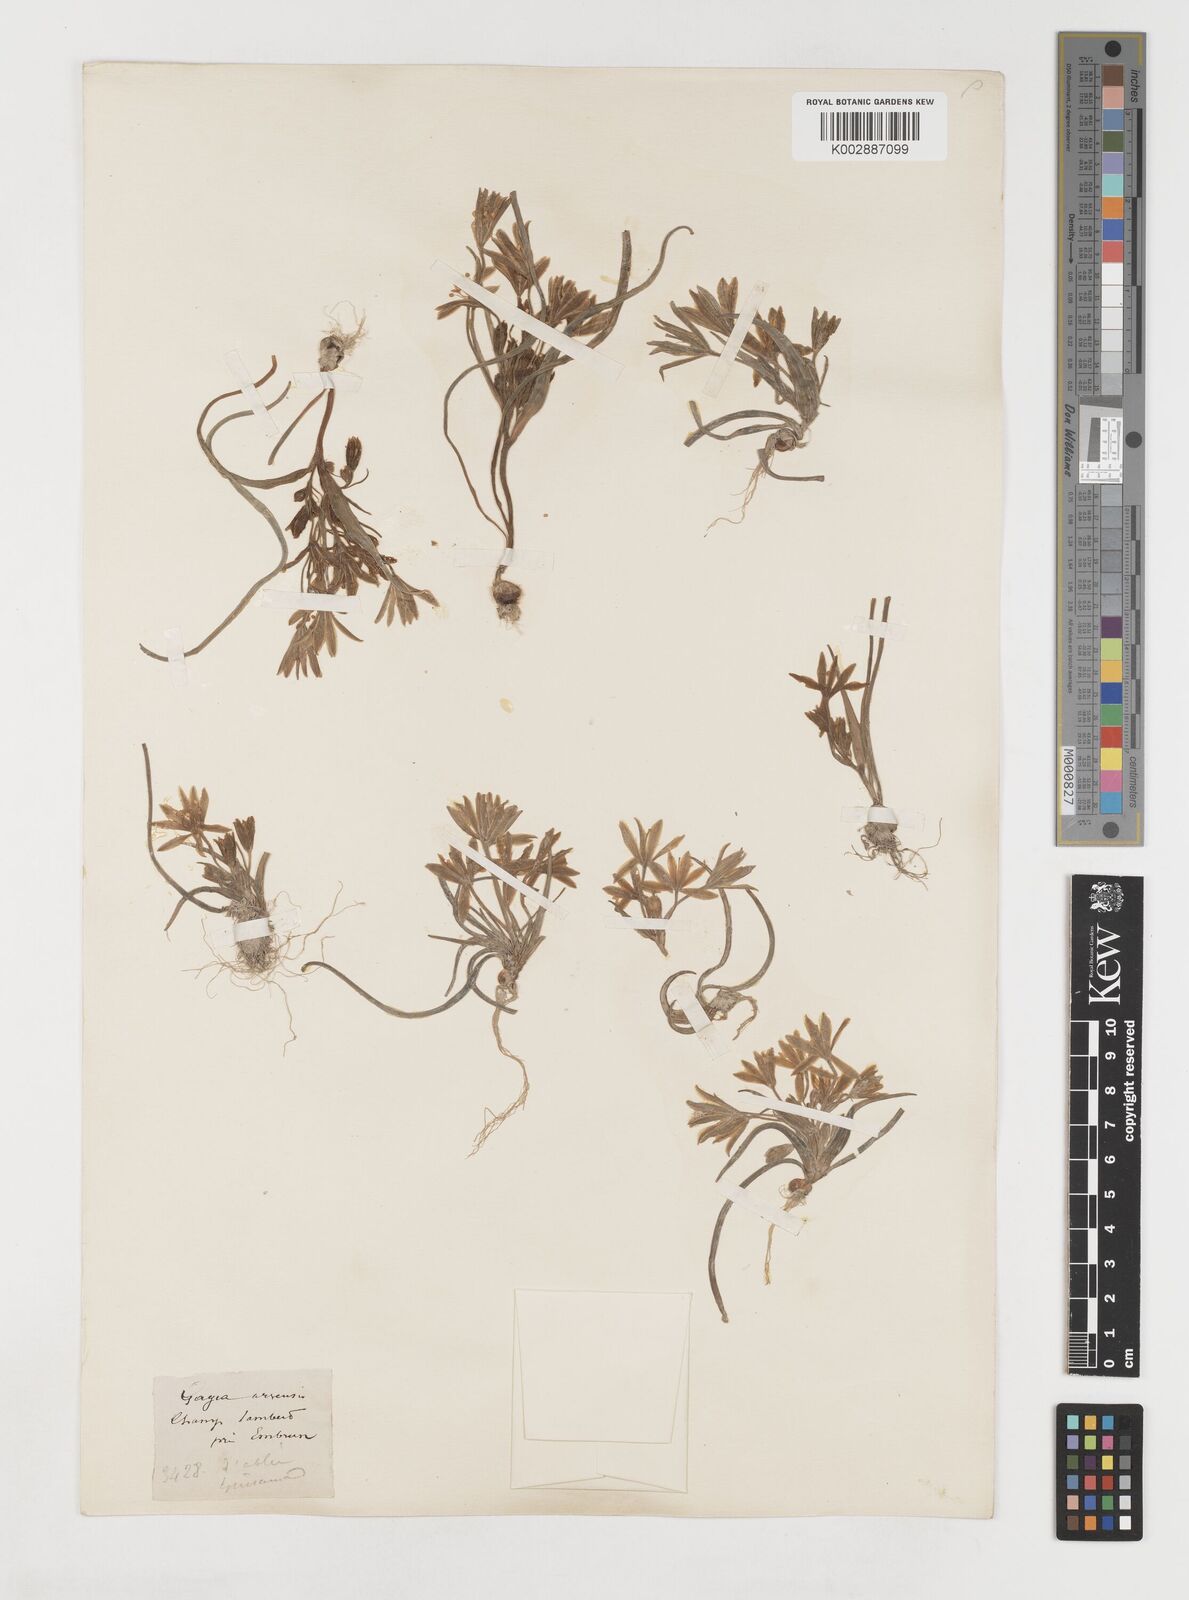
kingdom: Plantae
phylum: Tracheophyta
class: Liliopsida
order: Liliales
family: Liliaceae
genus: Gagea
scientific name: Gagea minima
